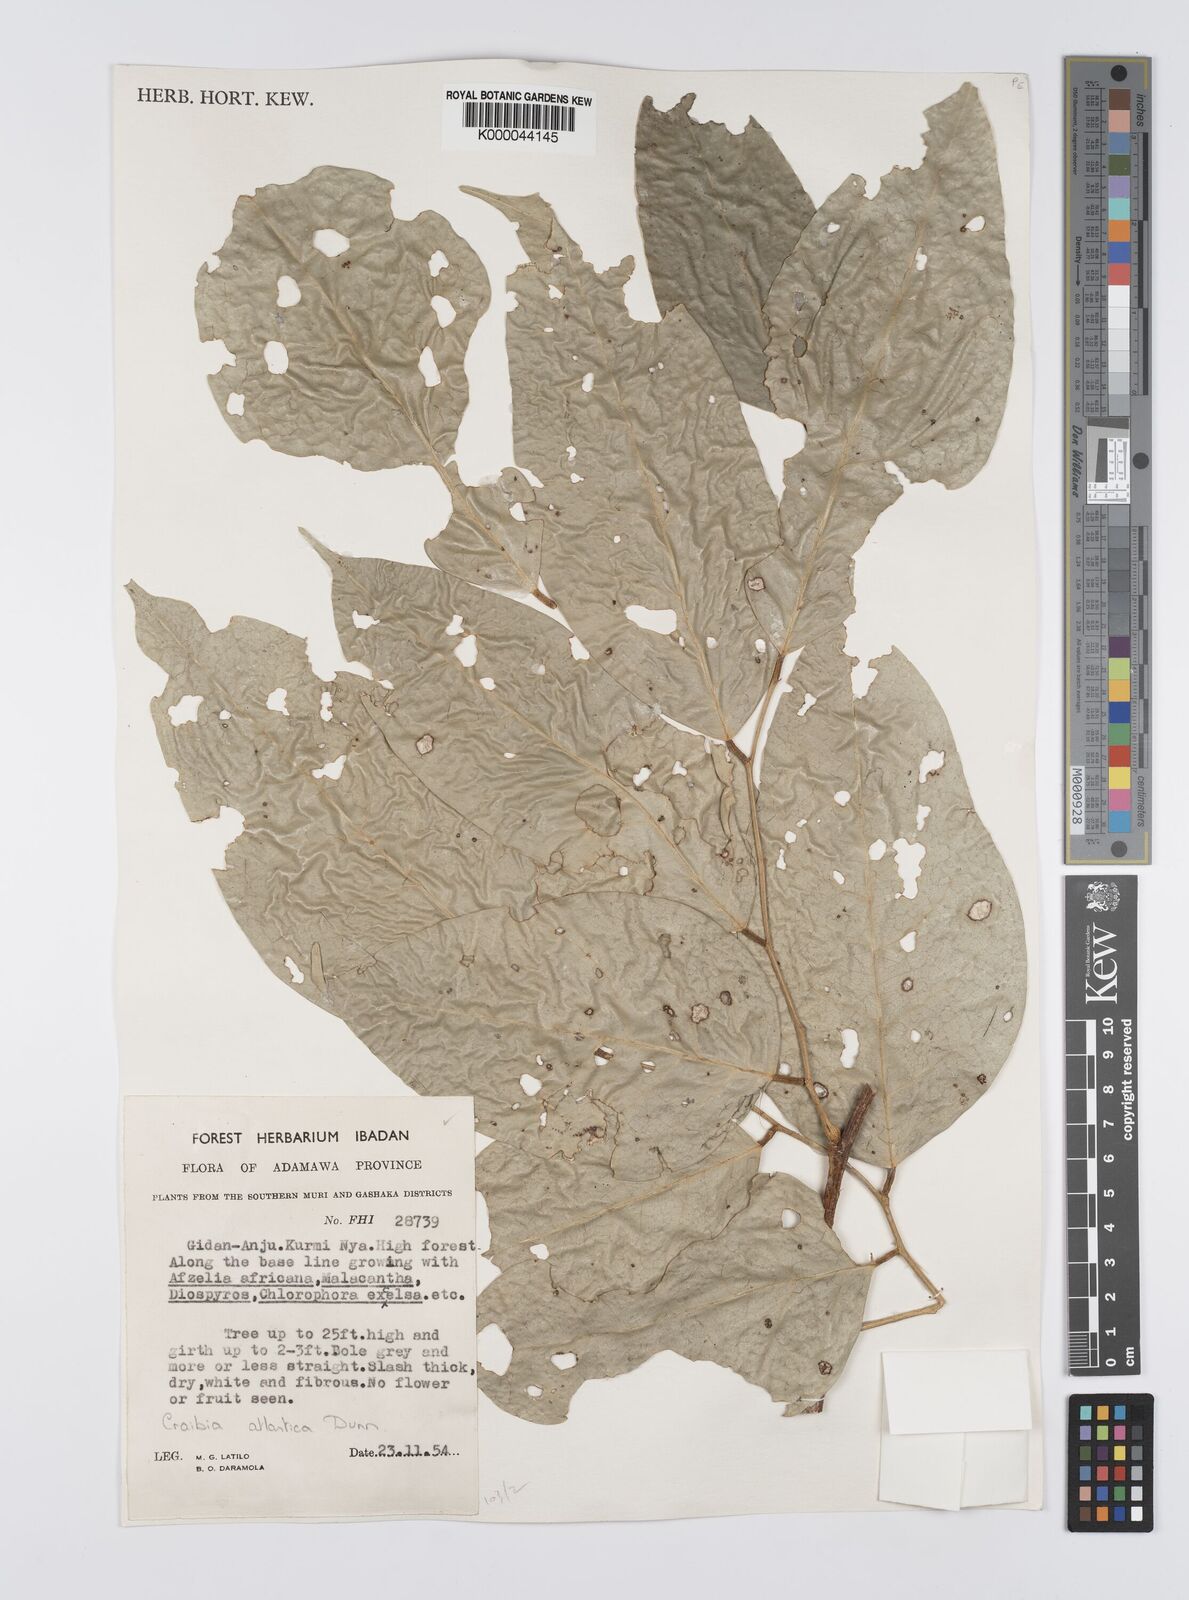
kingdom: Plantae
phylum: Tracheophyta
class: Magnoliopsida
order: Fabales
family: Fabaceae
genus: Craibia
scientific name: Craibia atlantica
